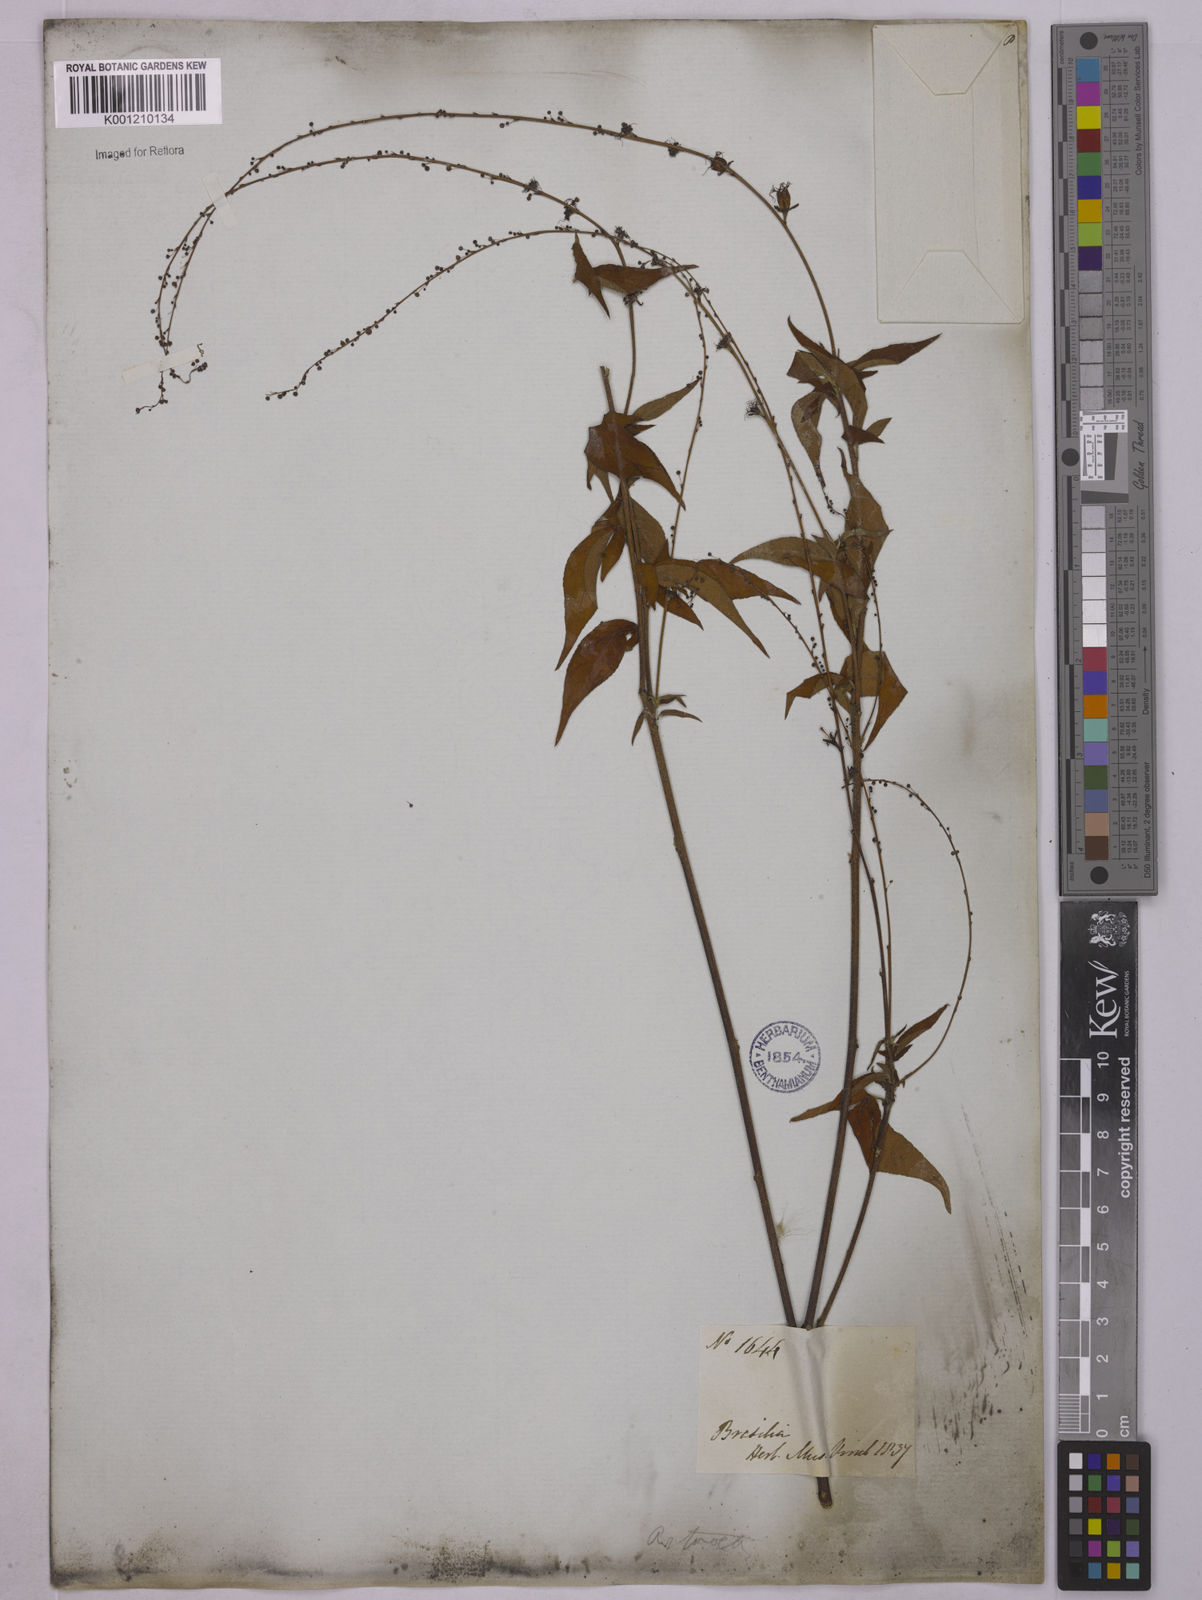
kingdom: Plantae
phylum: Tracheophyta
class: Magnoliopsida
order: Malpighiales
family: Euphorbiaceae
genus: Astraea
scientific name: Astraea macroura
